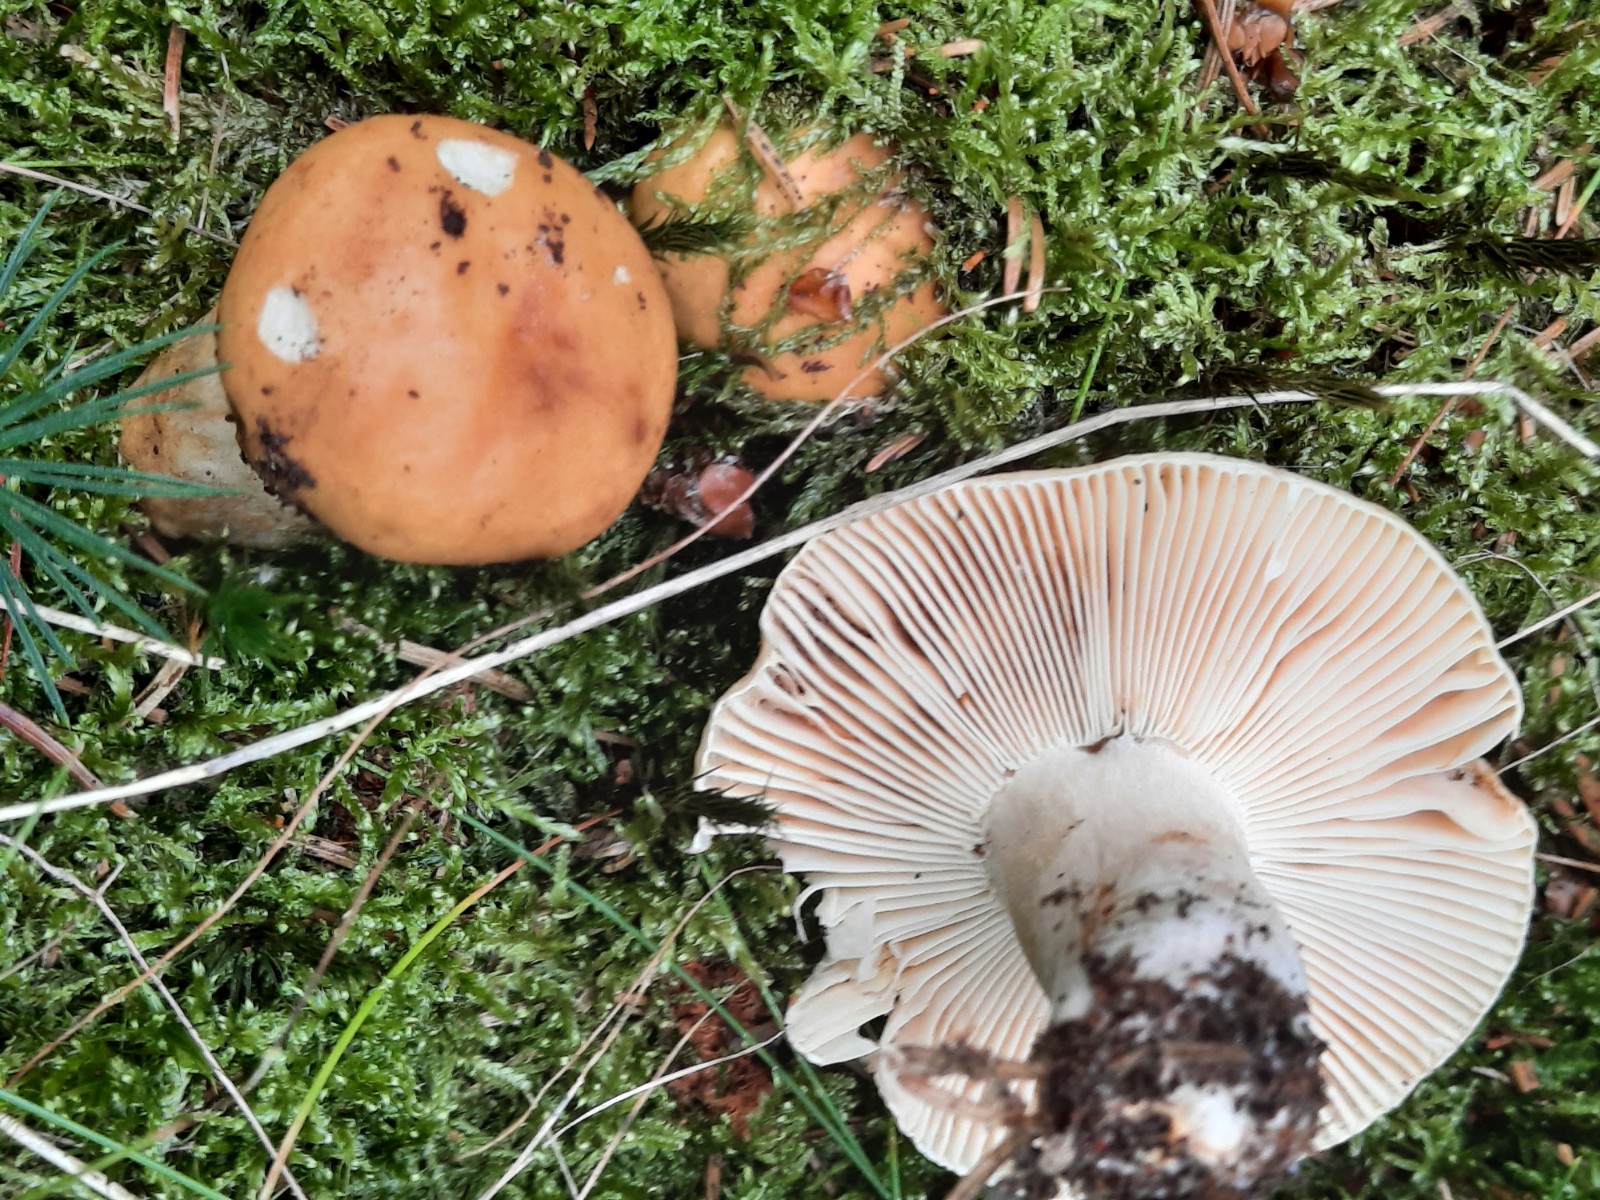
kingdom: Fungi
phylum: Basidiomycota
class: Agaricomycetes
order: Russulales
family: Russulaceae
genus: Russula
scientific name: Russula fellea
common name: galde-skørhat
